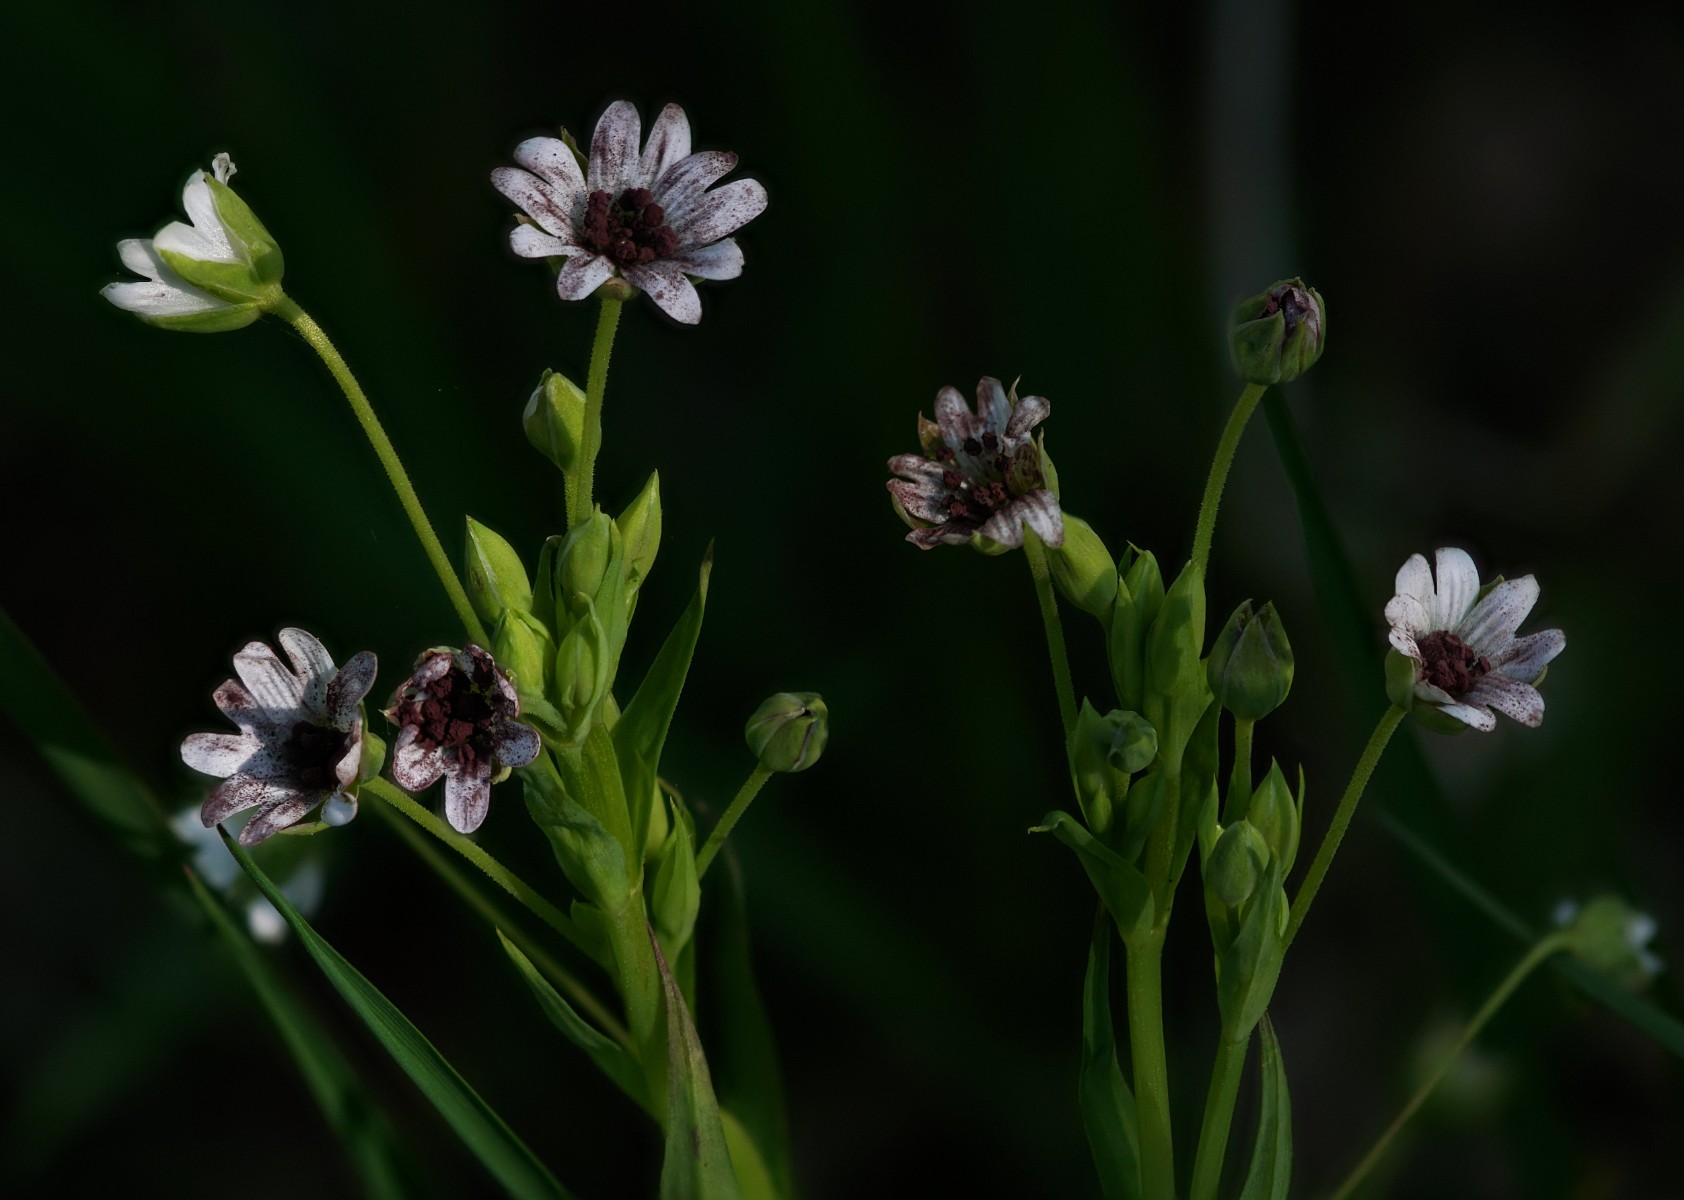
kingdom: Fungi
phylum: Basidiomycota
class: Microbotryomycetes
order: Microbotryales
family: Microbotryaceae
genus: Microbotryum
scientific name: Microbotryum stellariae
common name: fladstjerne-støvbladrust
